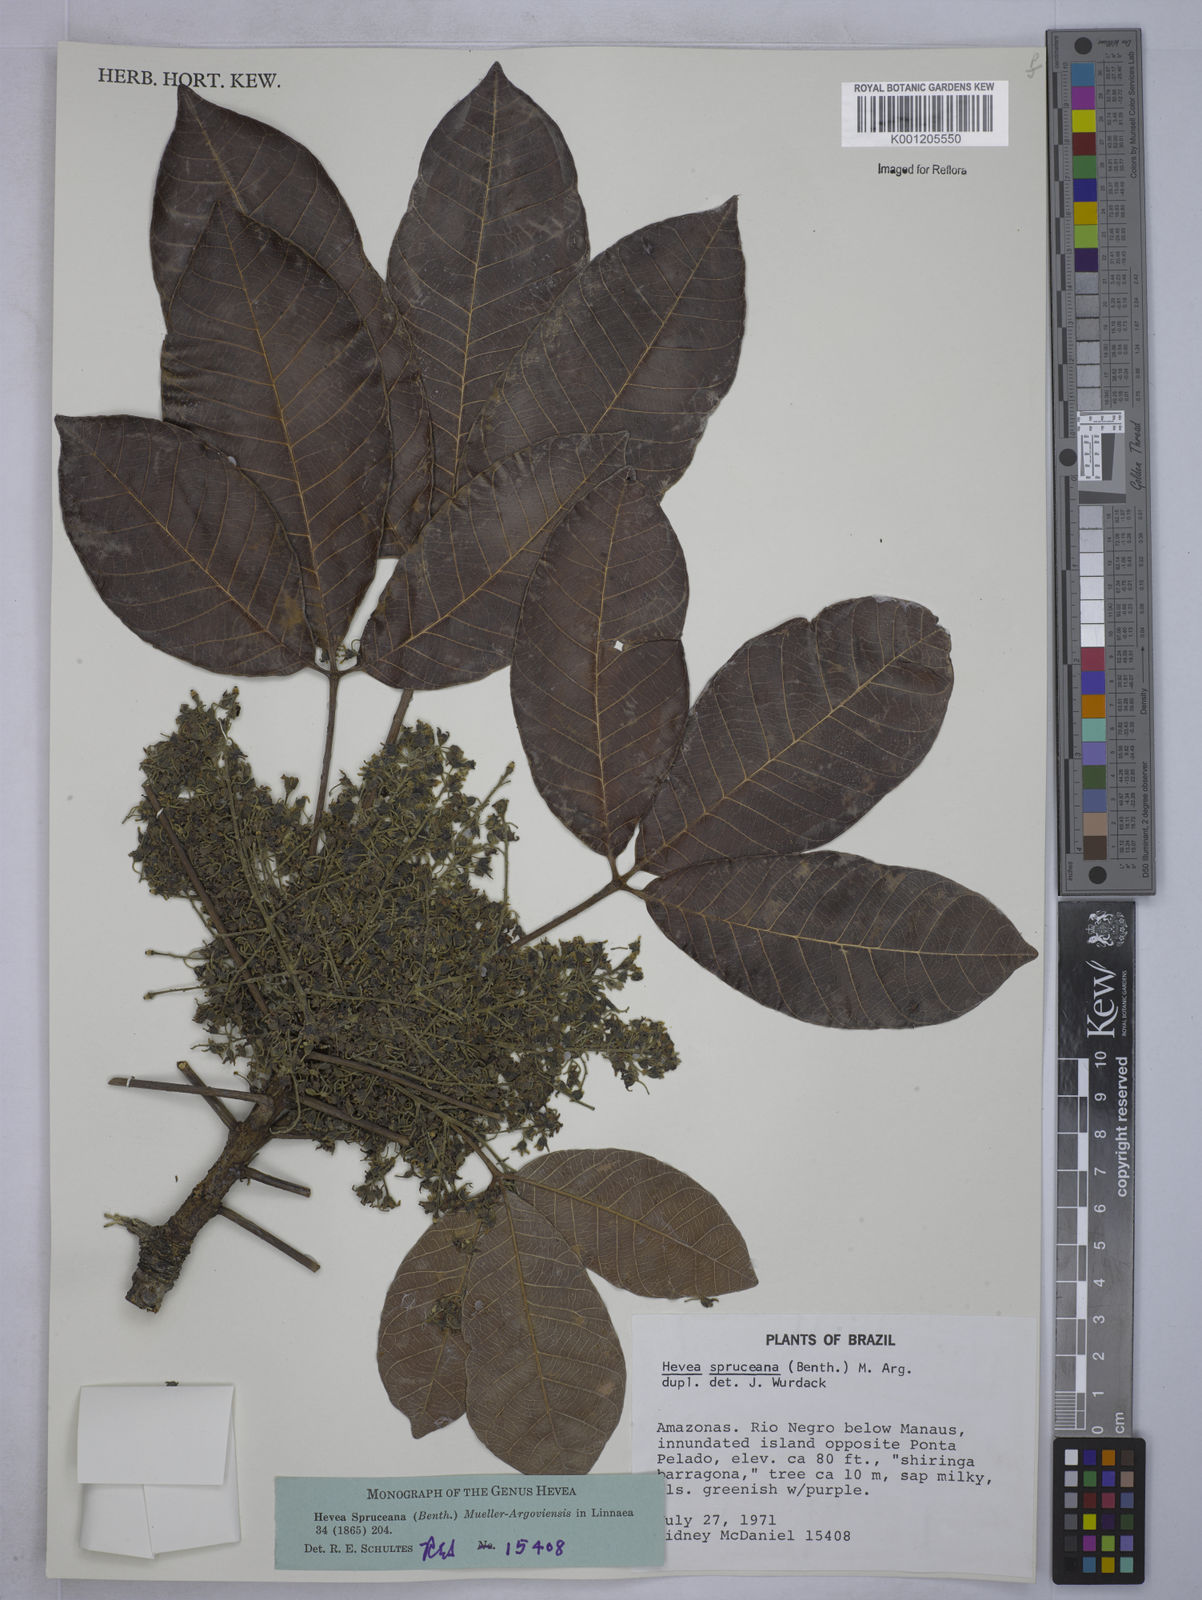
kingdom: Plantae
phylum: Tracheophyta
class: Magnoliopsida
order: Malpighiales
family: Euphorbiaceae
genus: Hevea
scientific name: Hevea
